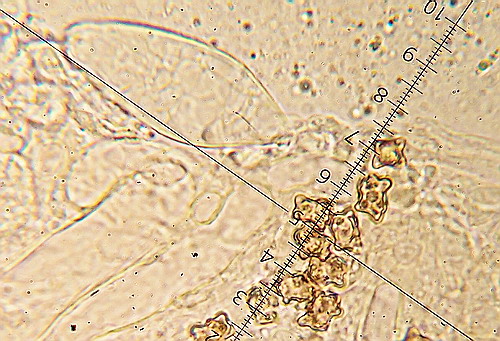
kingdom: Fungi
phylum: Basidiomycota
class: Agaricomycetes
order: Agaricales
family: Inocybaceae
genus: Inocybe
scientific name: Inocybe napipes
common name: roeknoldet trævlhat
